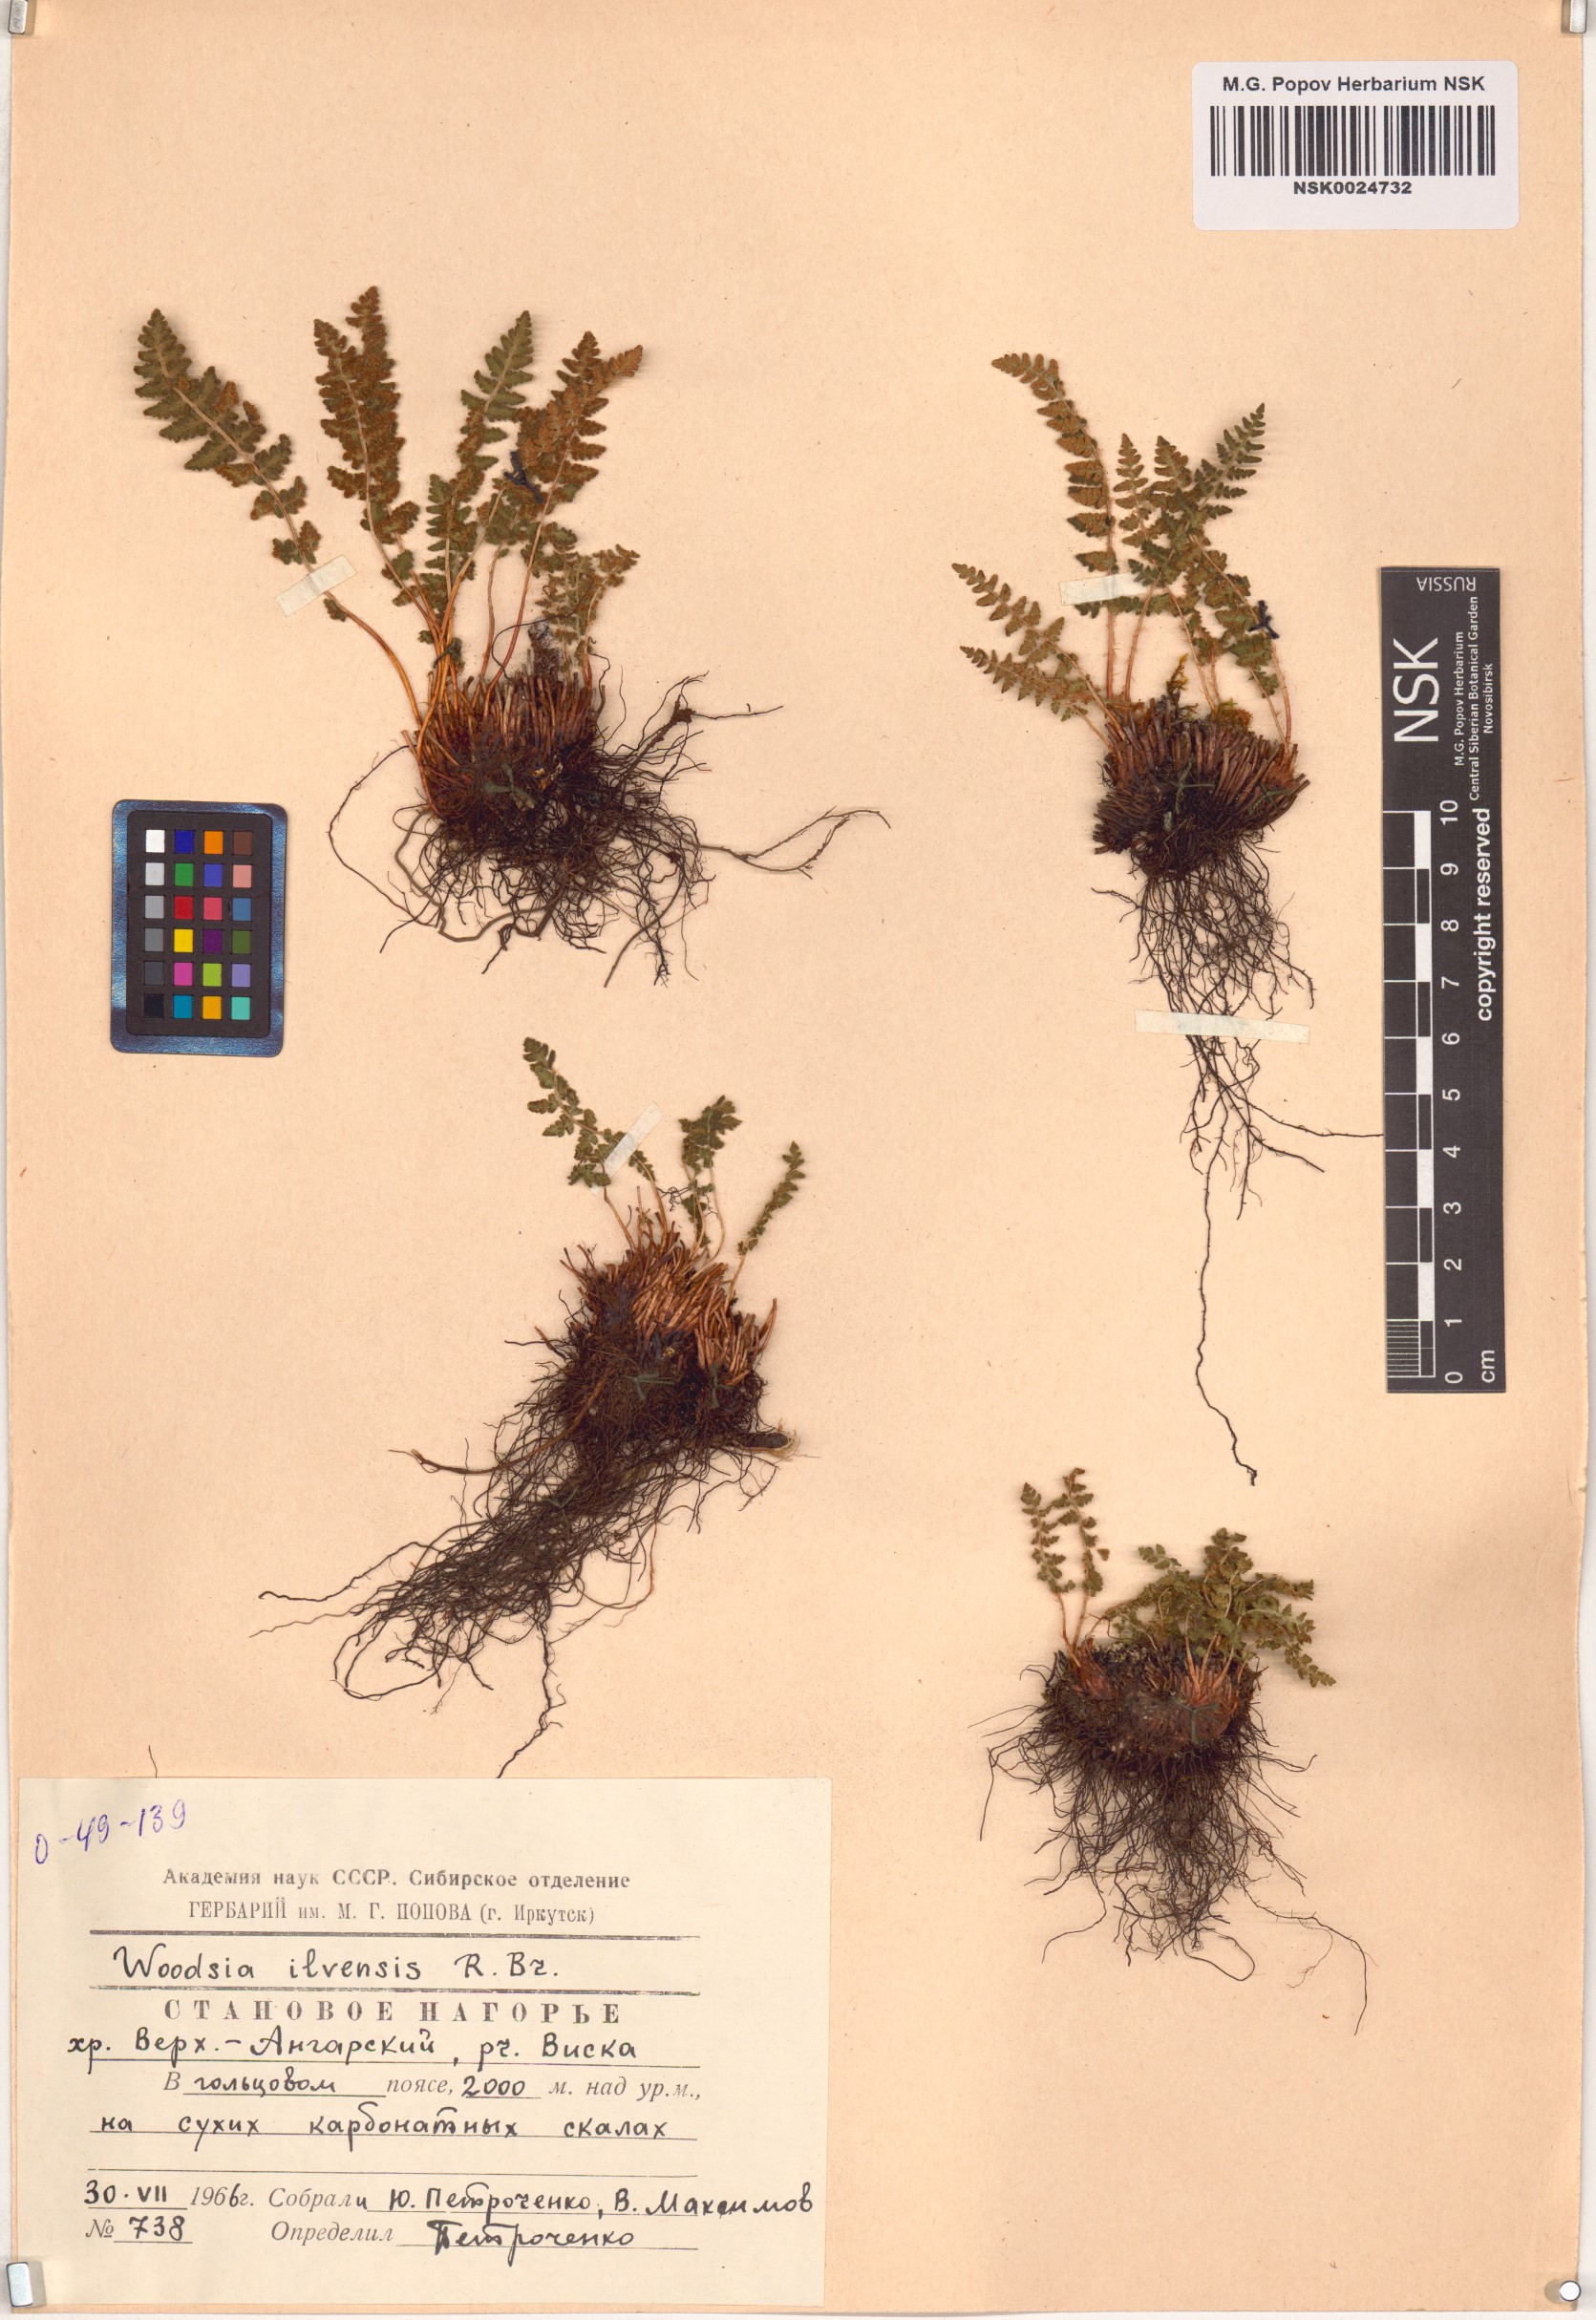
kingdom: Plantae
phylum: Tracheophyta
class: Polypodiopsida
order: Polypodiales
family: Woodsiaceae
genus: Woodsia
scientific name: Woodsia ilvensis
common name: Fragrant woodsia
